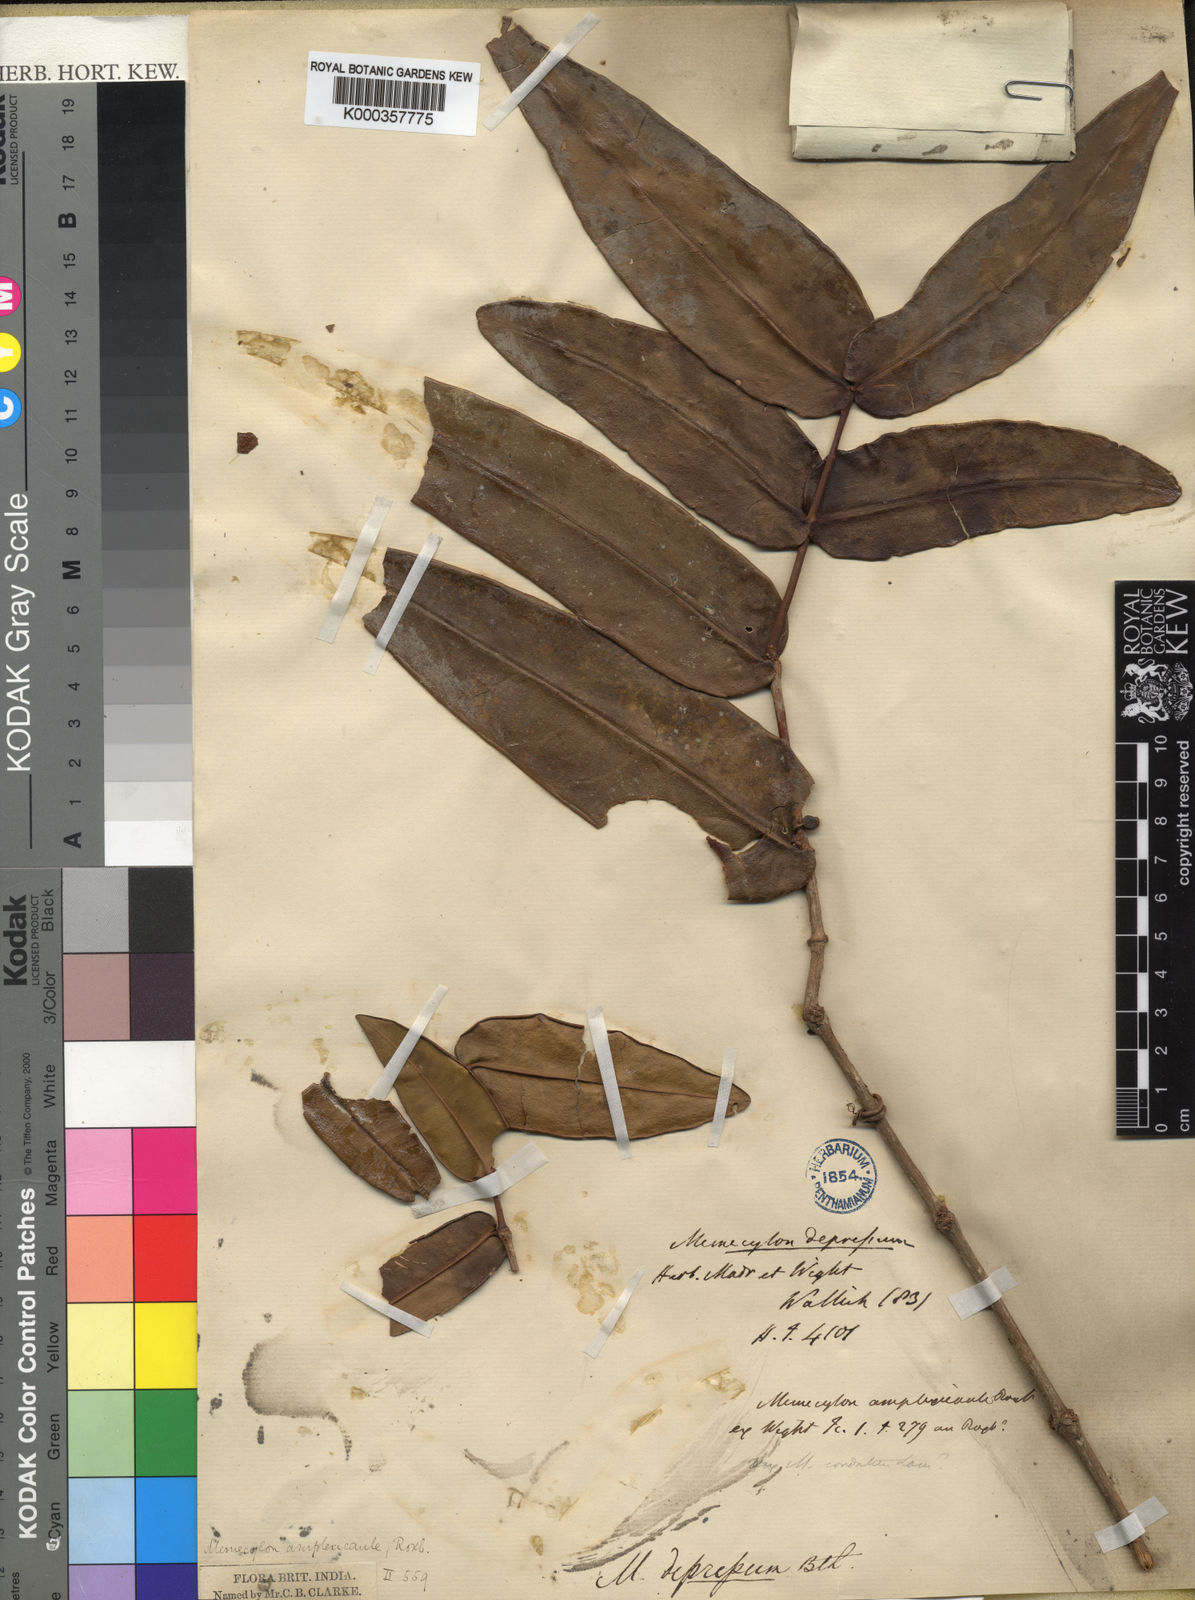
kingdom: Plantae
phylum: Tracheophyta
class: Magnoliopsida
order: Myrtales
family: Melastomataceae
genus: Memecylon
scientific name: Memecylon wallichii
